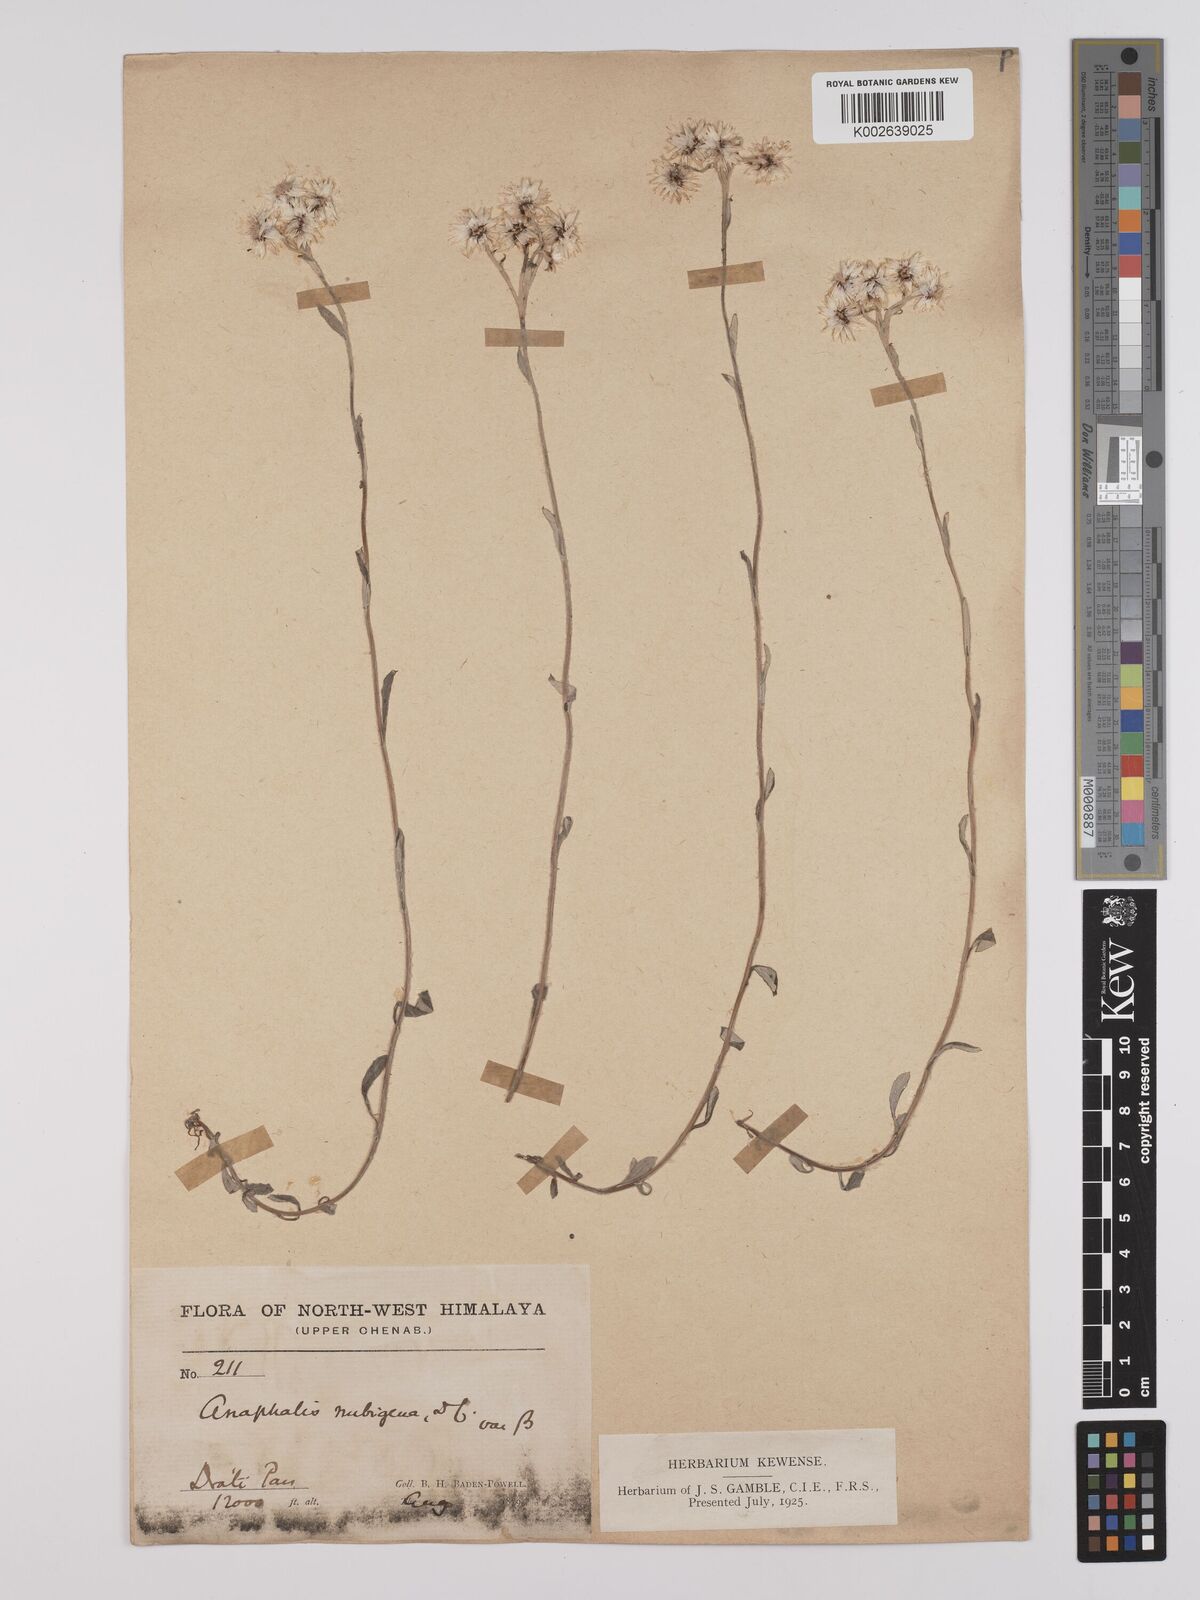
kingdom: Plantae
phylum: Tracheophyta
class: Magnoliopsida
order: Asterales
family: Asteraceae
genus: Anaphalis
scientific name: Anaphalis nepalensis
